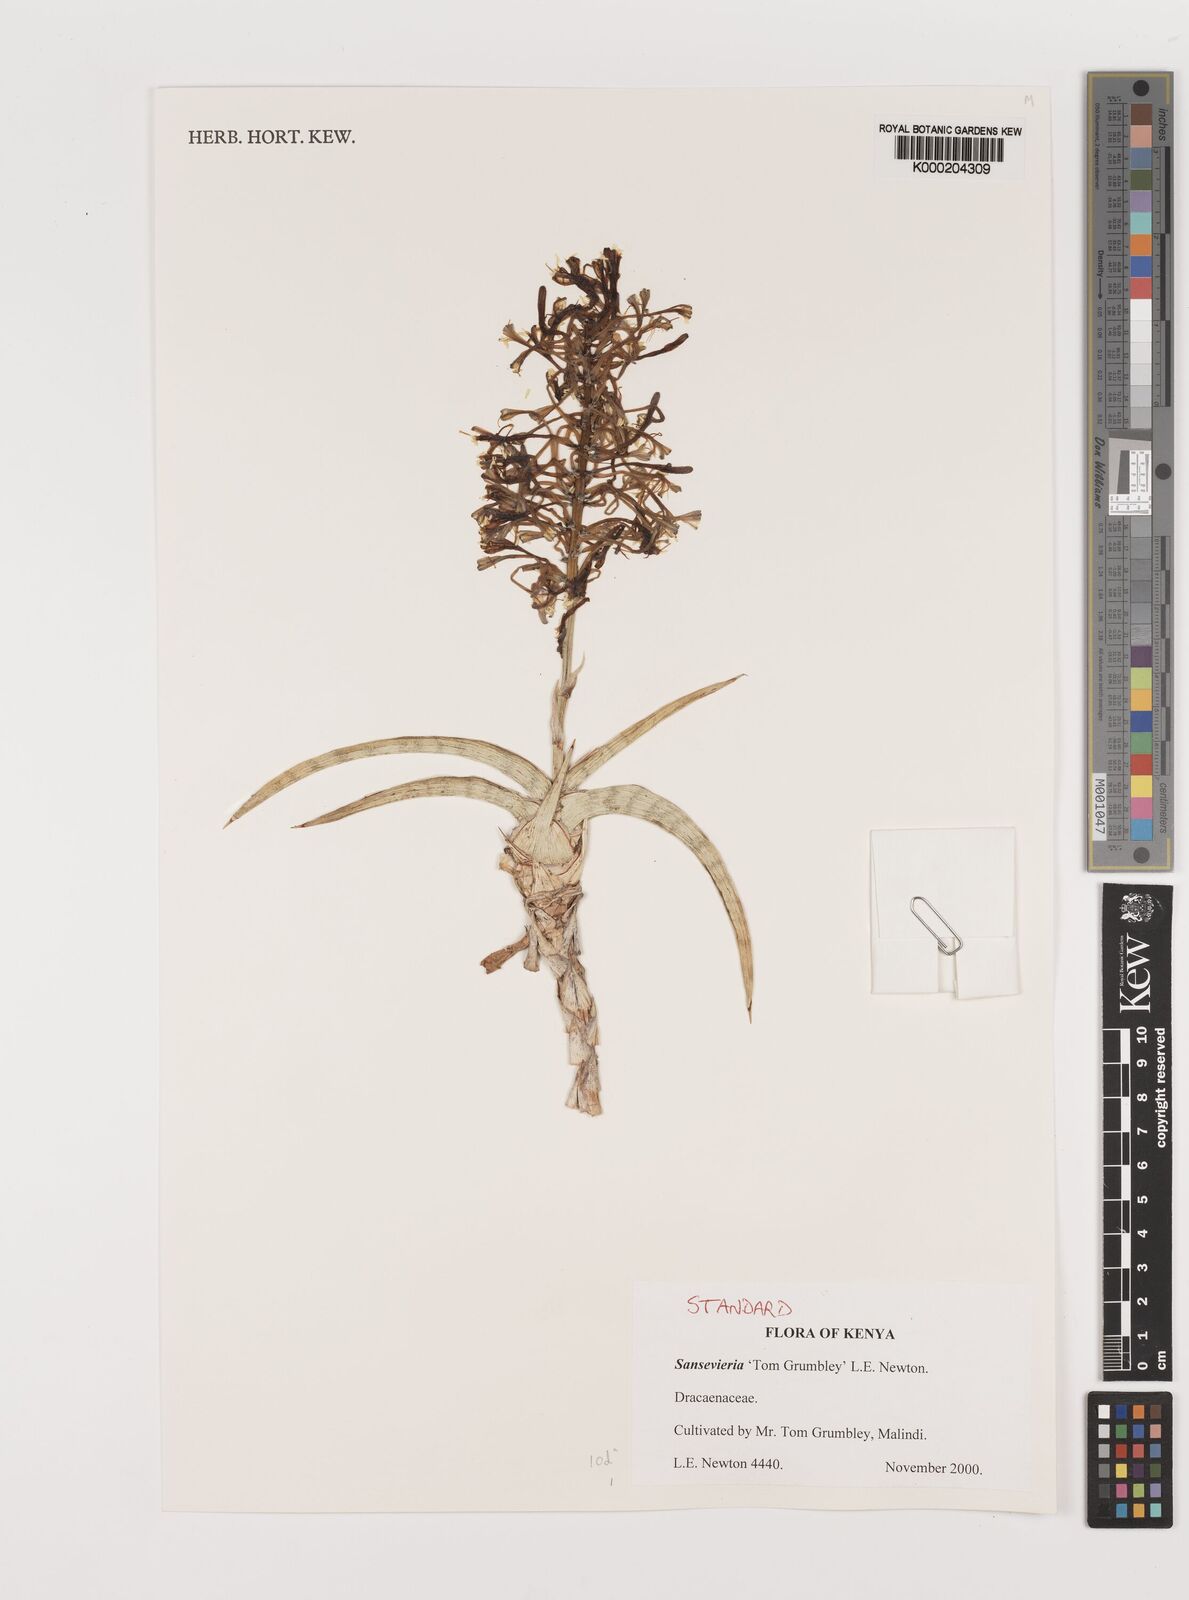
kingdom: Plantae
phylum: Tracheophyta
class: Liliopsida
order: Asparagales
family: Asparagaceae
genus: Dracaena
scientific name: Dracaena
